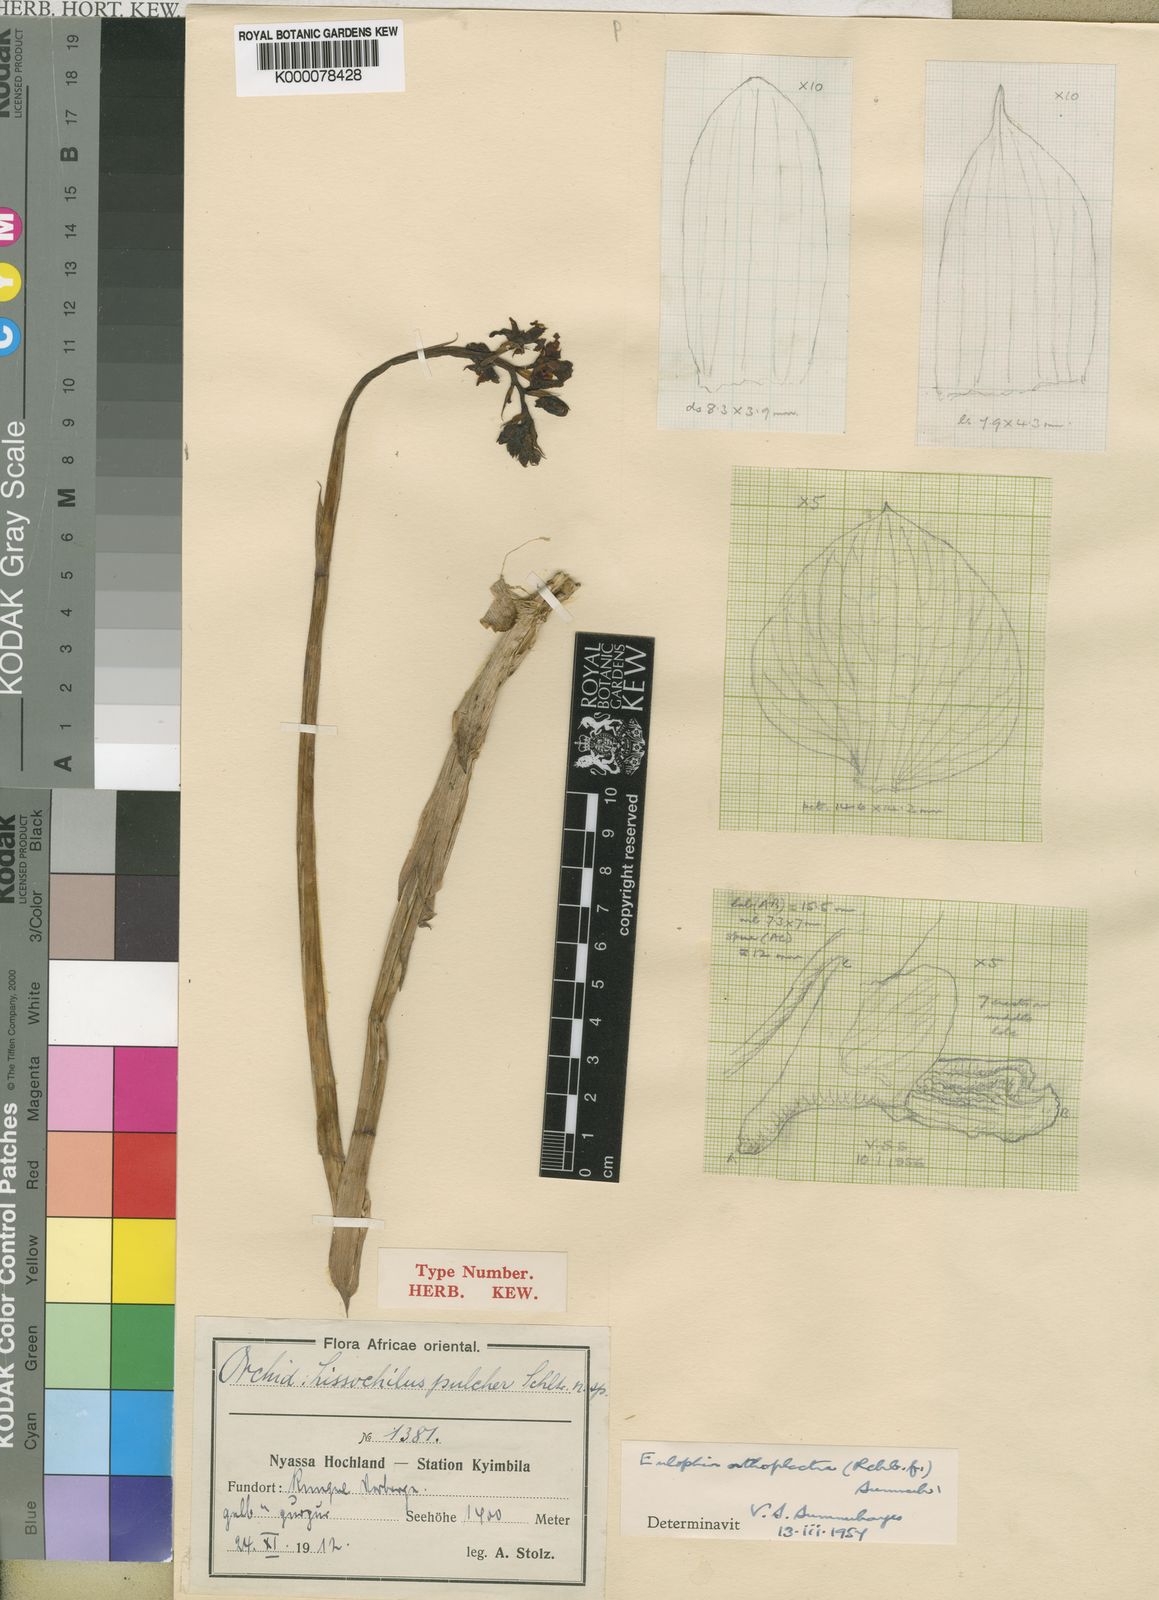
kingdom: Plantae
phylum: Tracheophyta
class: Liliopsida
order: Asparagales
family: Orchidaceae
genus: Eulophia
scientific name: Eulophia orthoplectra
